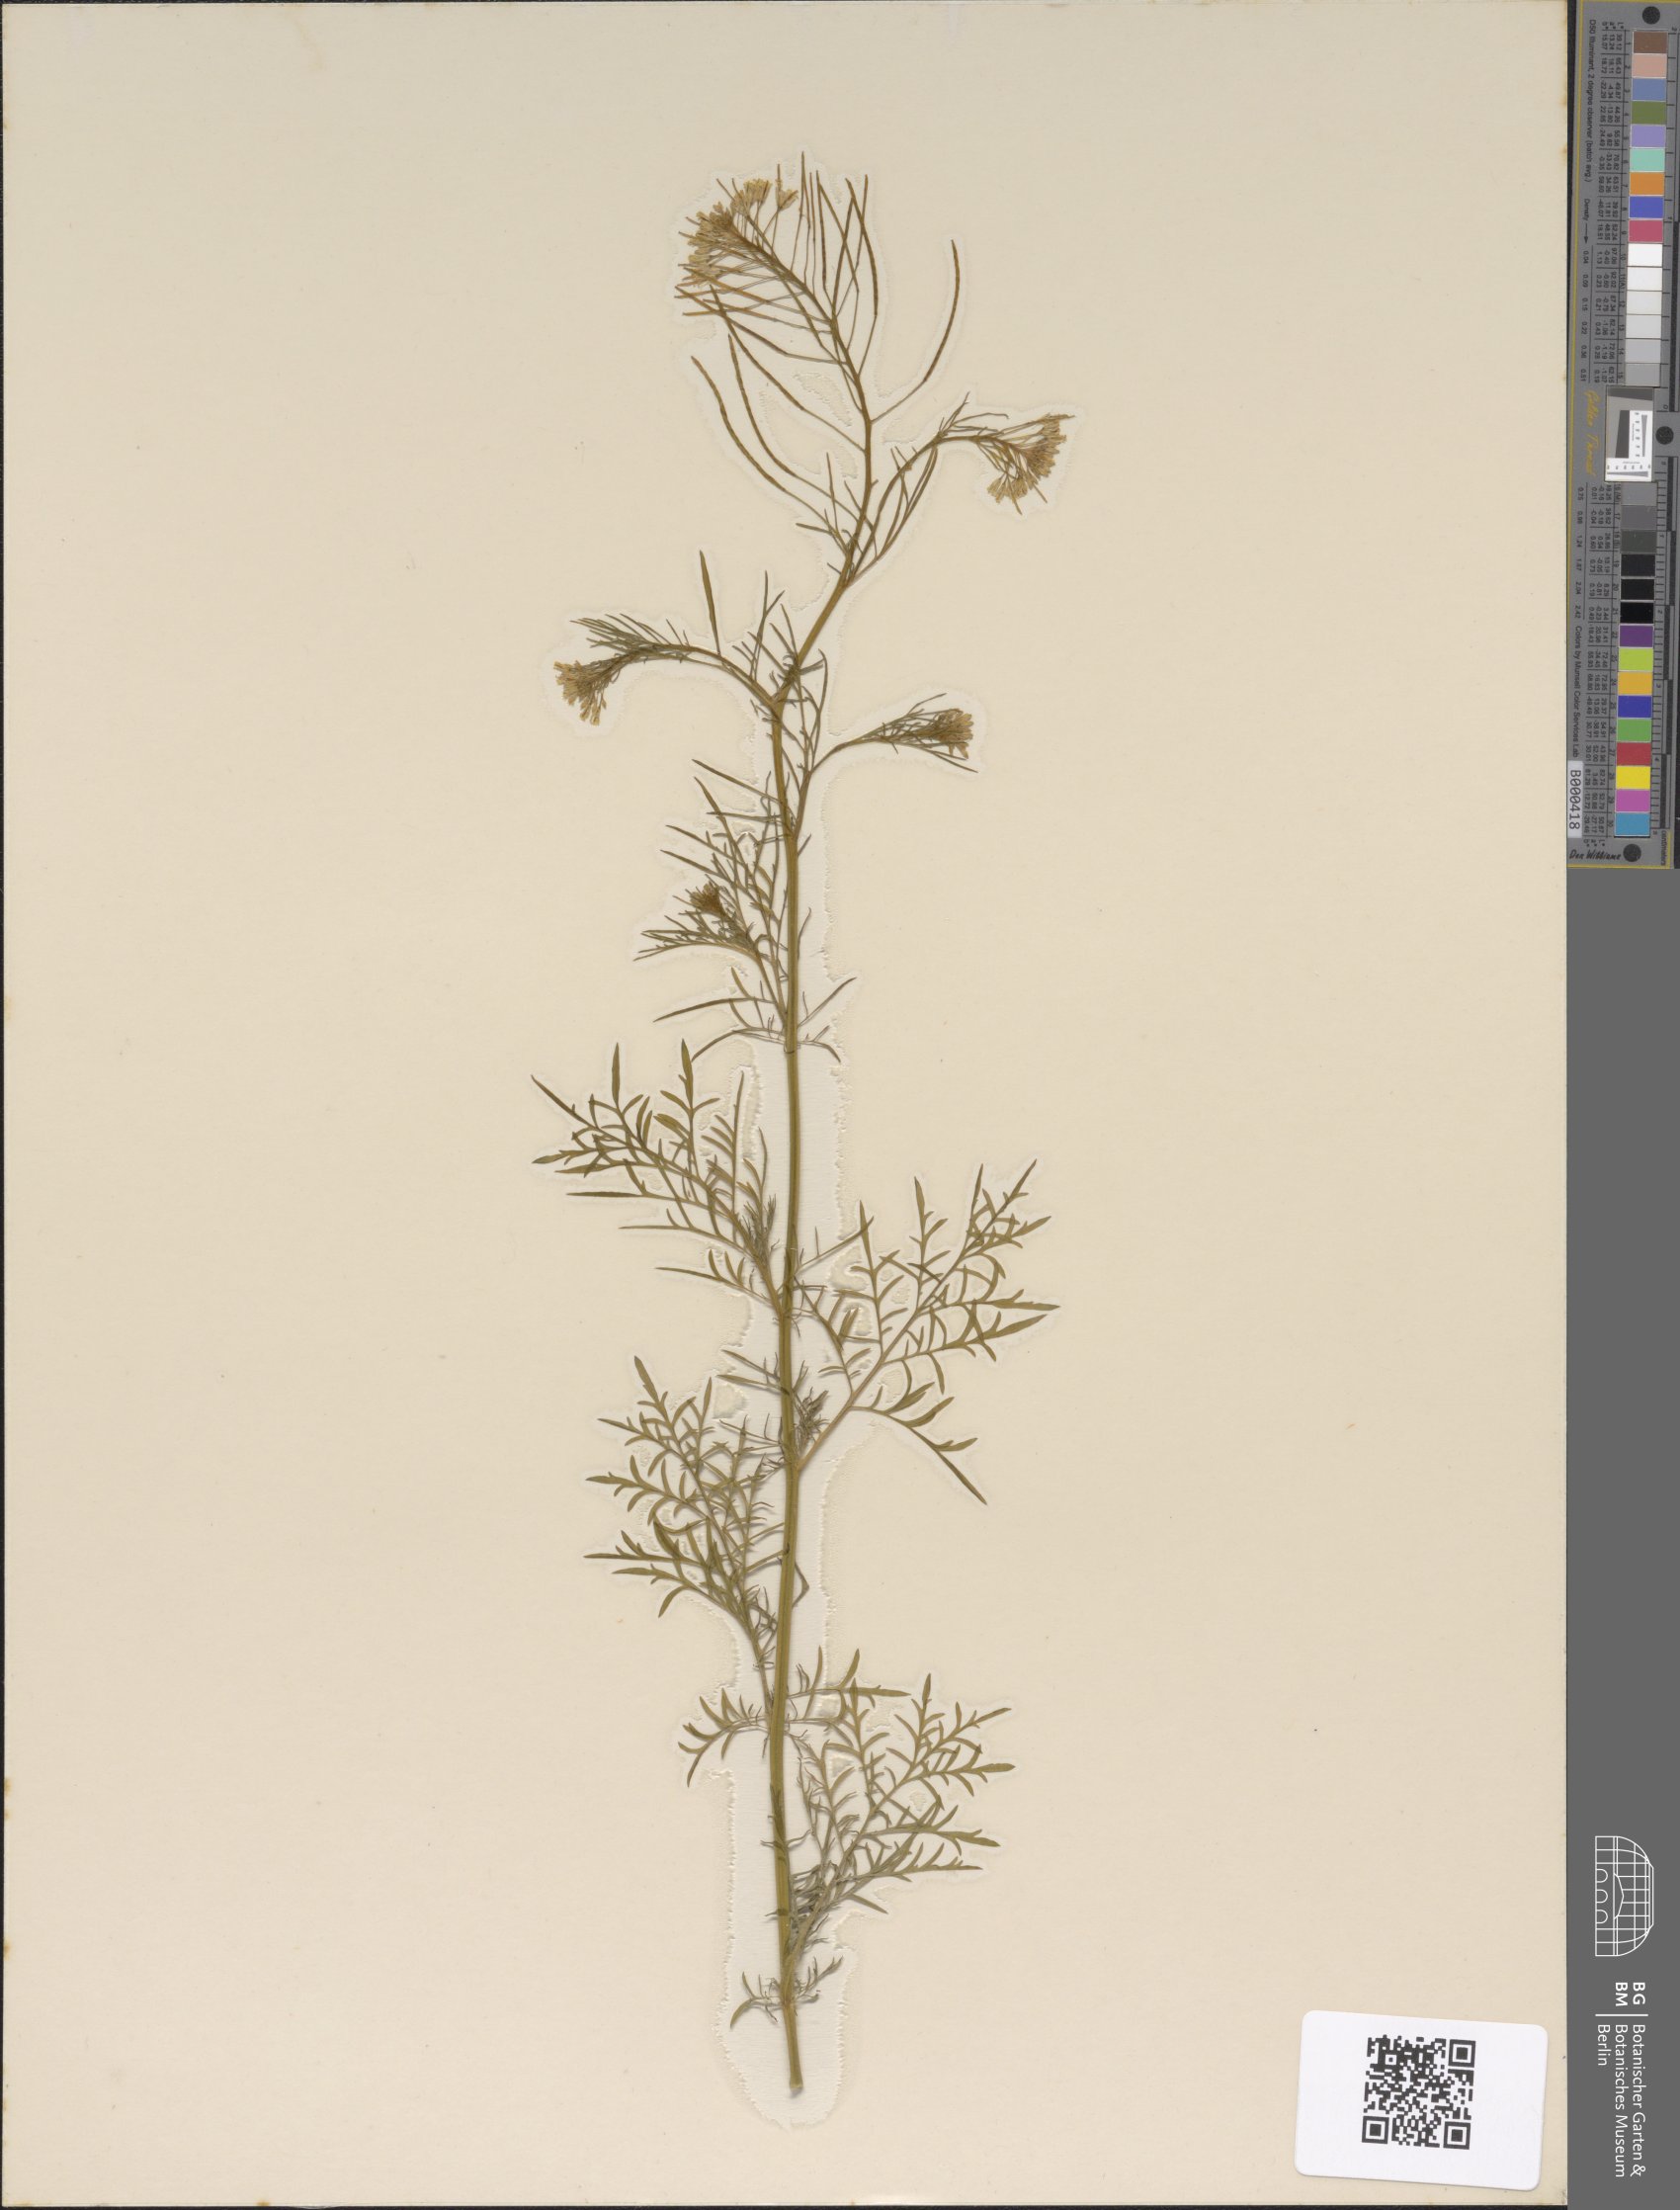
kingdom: Plantae
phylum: Tracheophyta
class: Magnoliopsida
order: Brassicales
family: Brassicaceae
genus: Descurainia
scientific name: Descurainia sophia
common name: Flixweed
